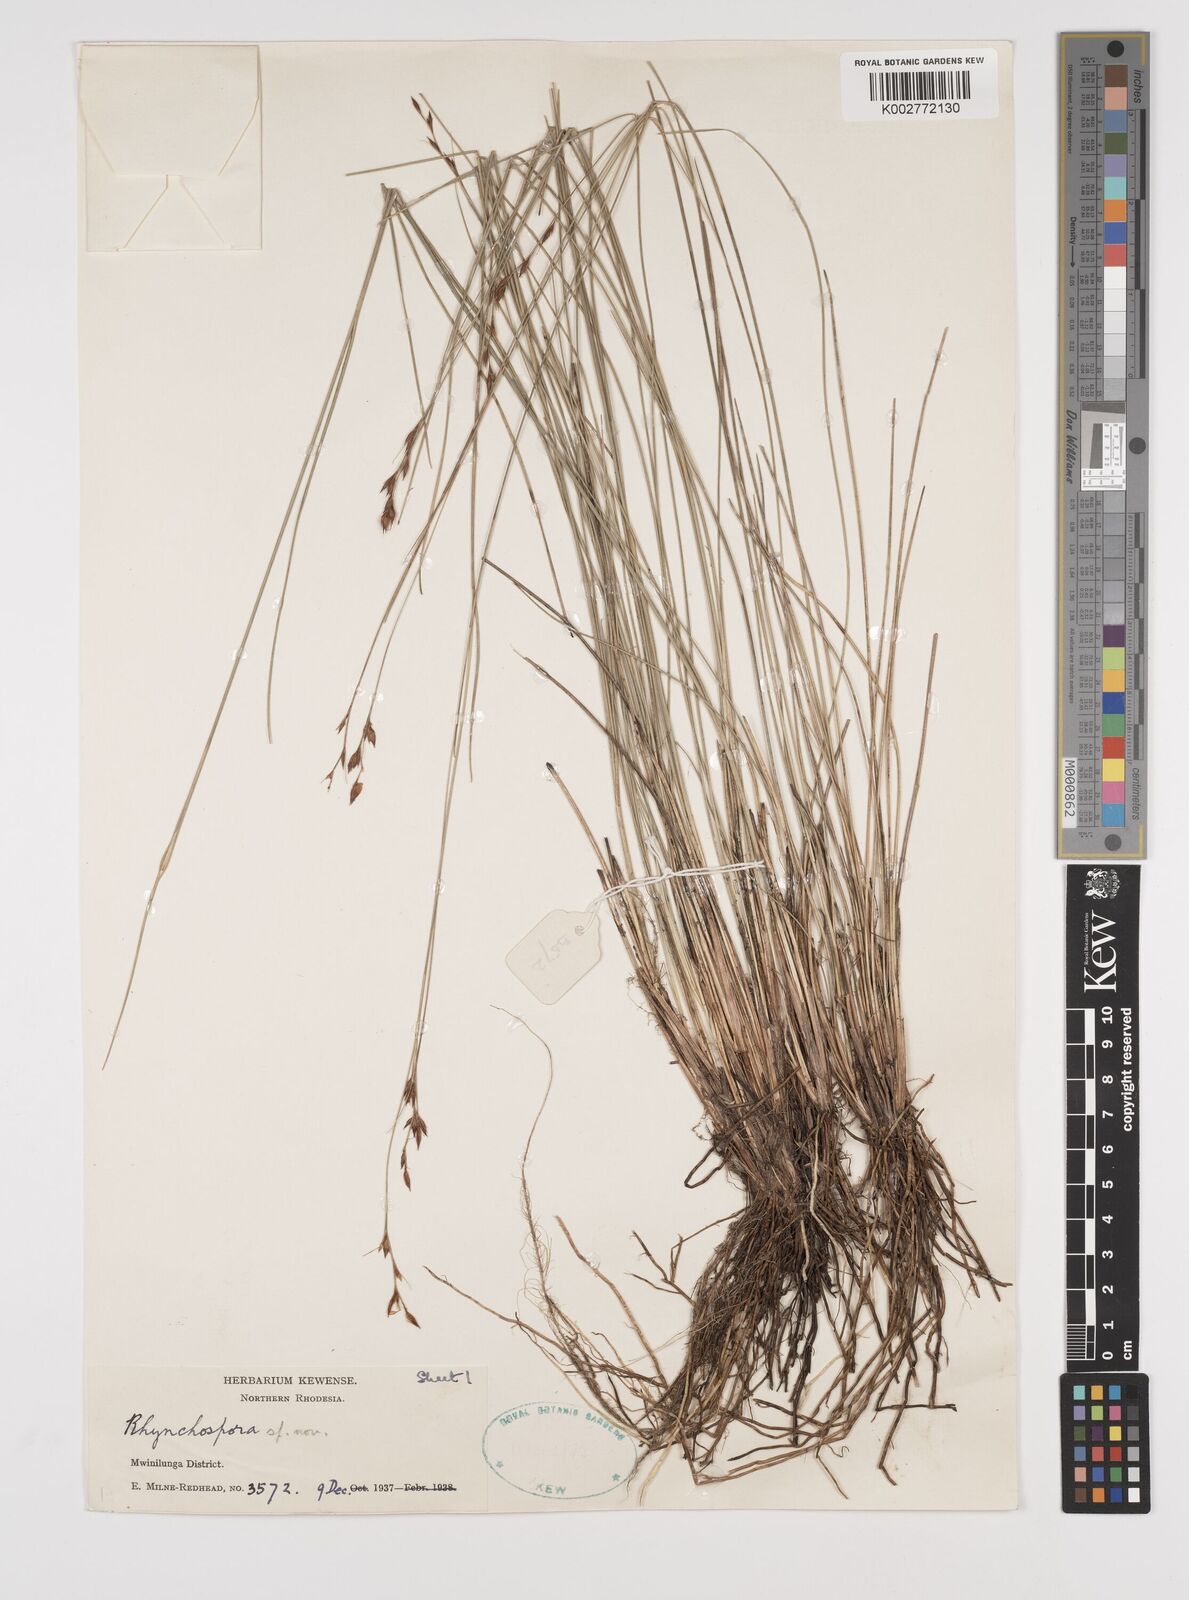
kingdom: Plantae
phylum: Tracheophyta
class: Liliopsida
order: Poales
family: Cyperaceae
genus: Rhynchospora
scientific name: Rhynchospora
